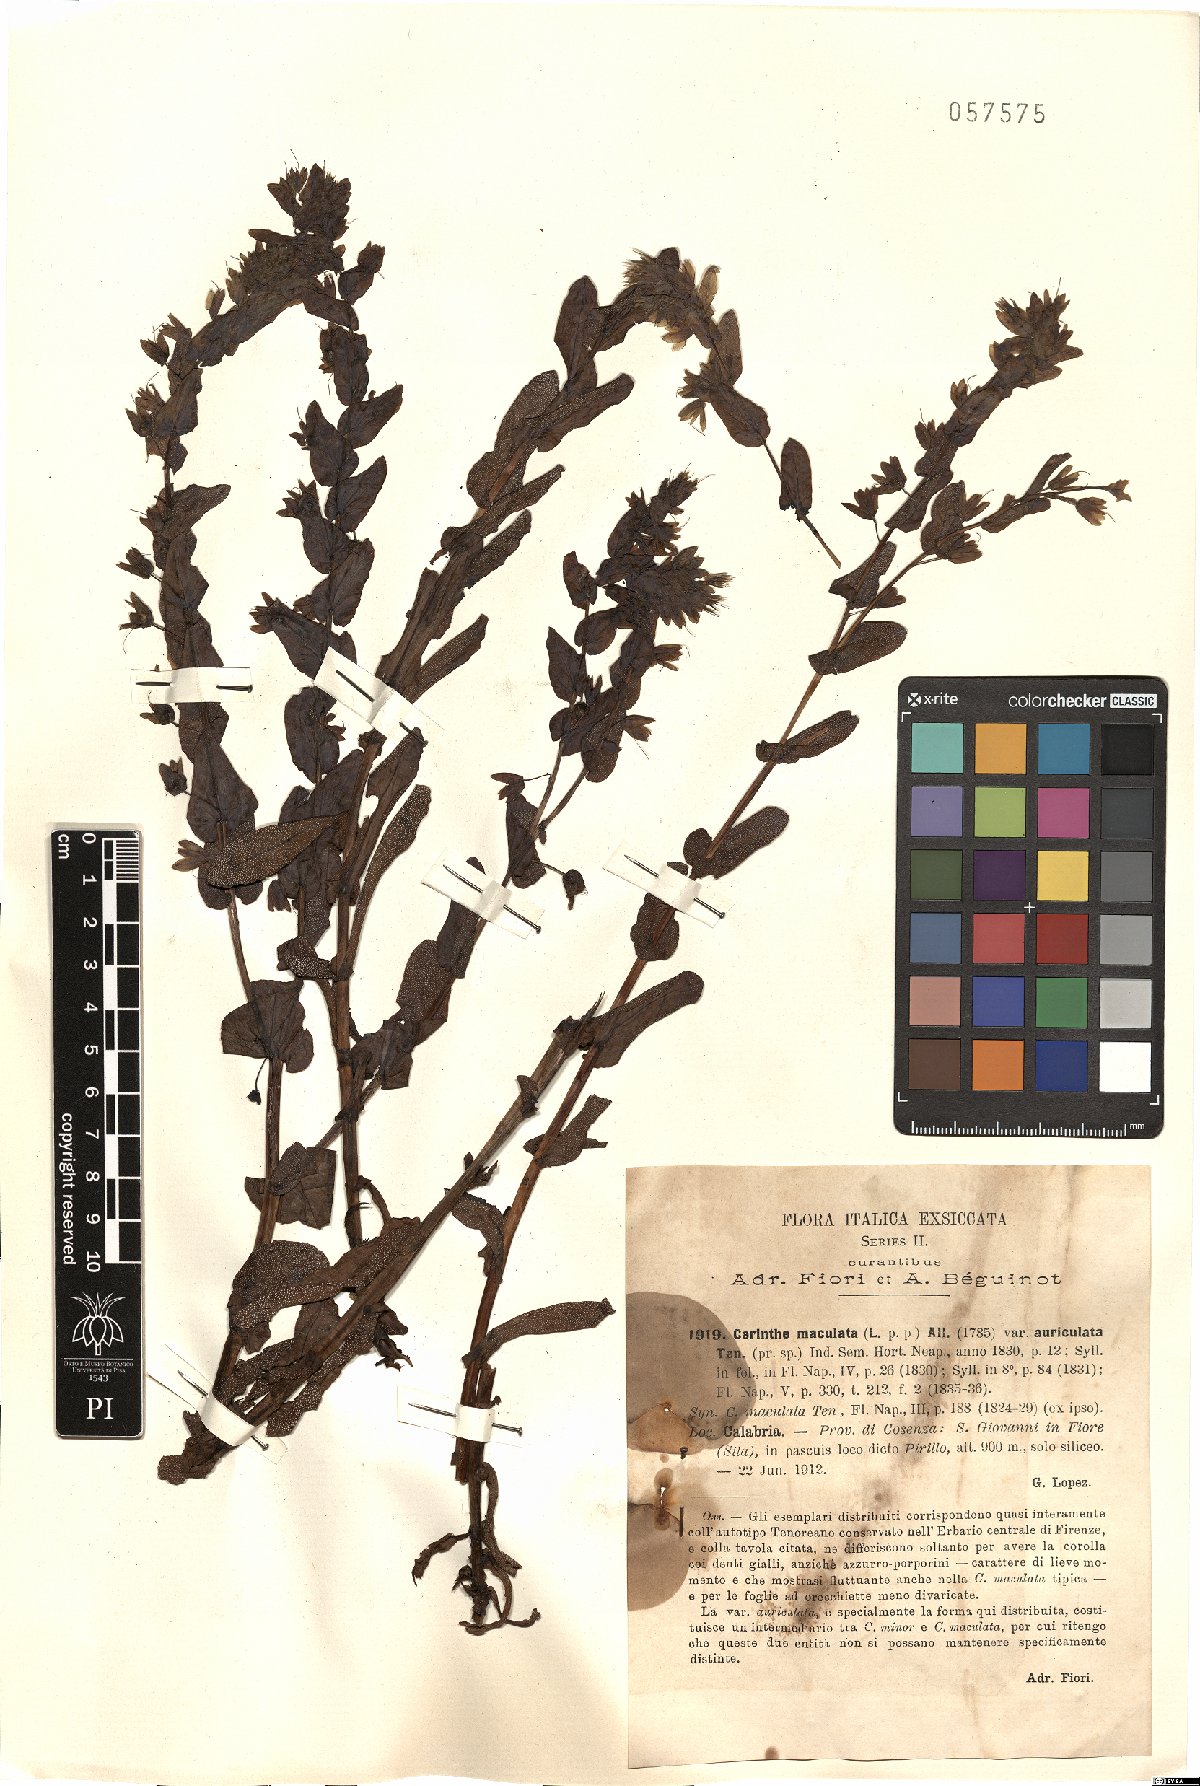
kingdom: Plantae
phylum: Tracheophyta
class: Magnoliopsida
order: Boraginales
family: Boraginaceae
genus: Cerinthe
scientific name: Cerinthe minor
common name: Lesser honeywort
